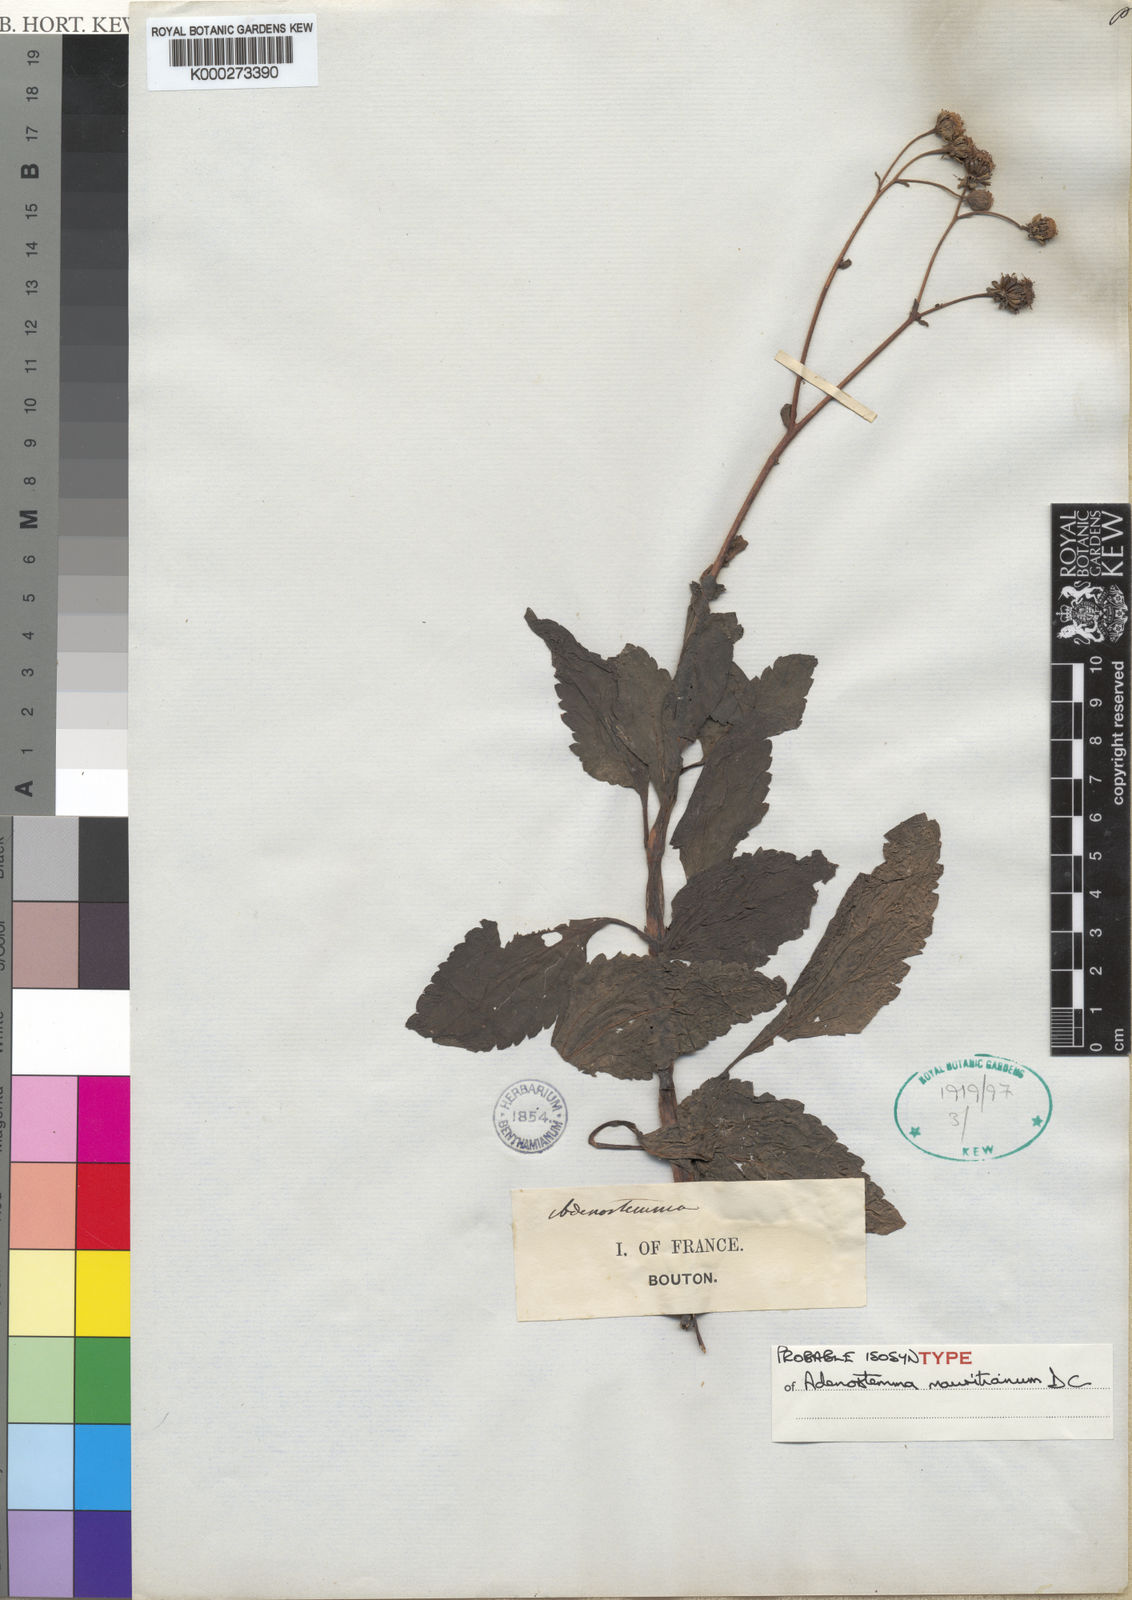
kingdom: Plantae
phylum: Tracheophyta
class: Magnoliopsida
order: Asterales
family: Asteraceae
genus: Adenostemma
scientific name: Adenostemma mauritianum
